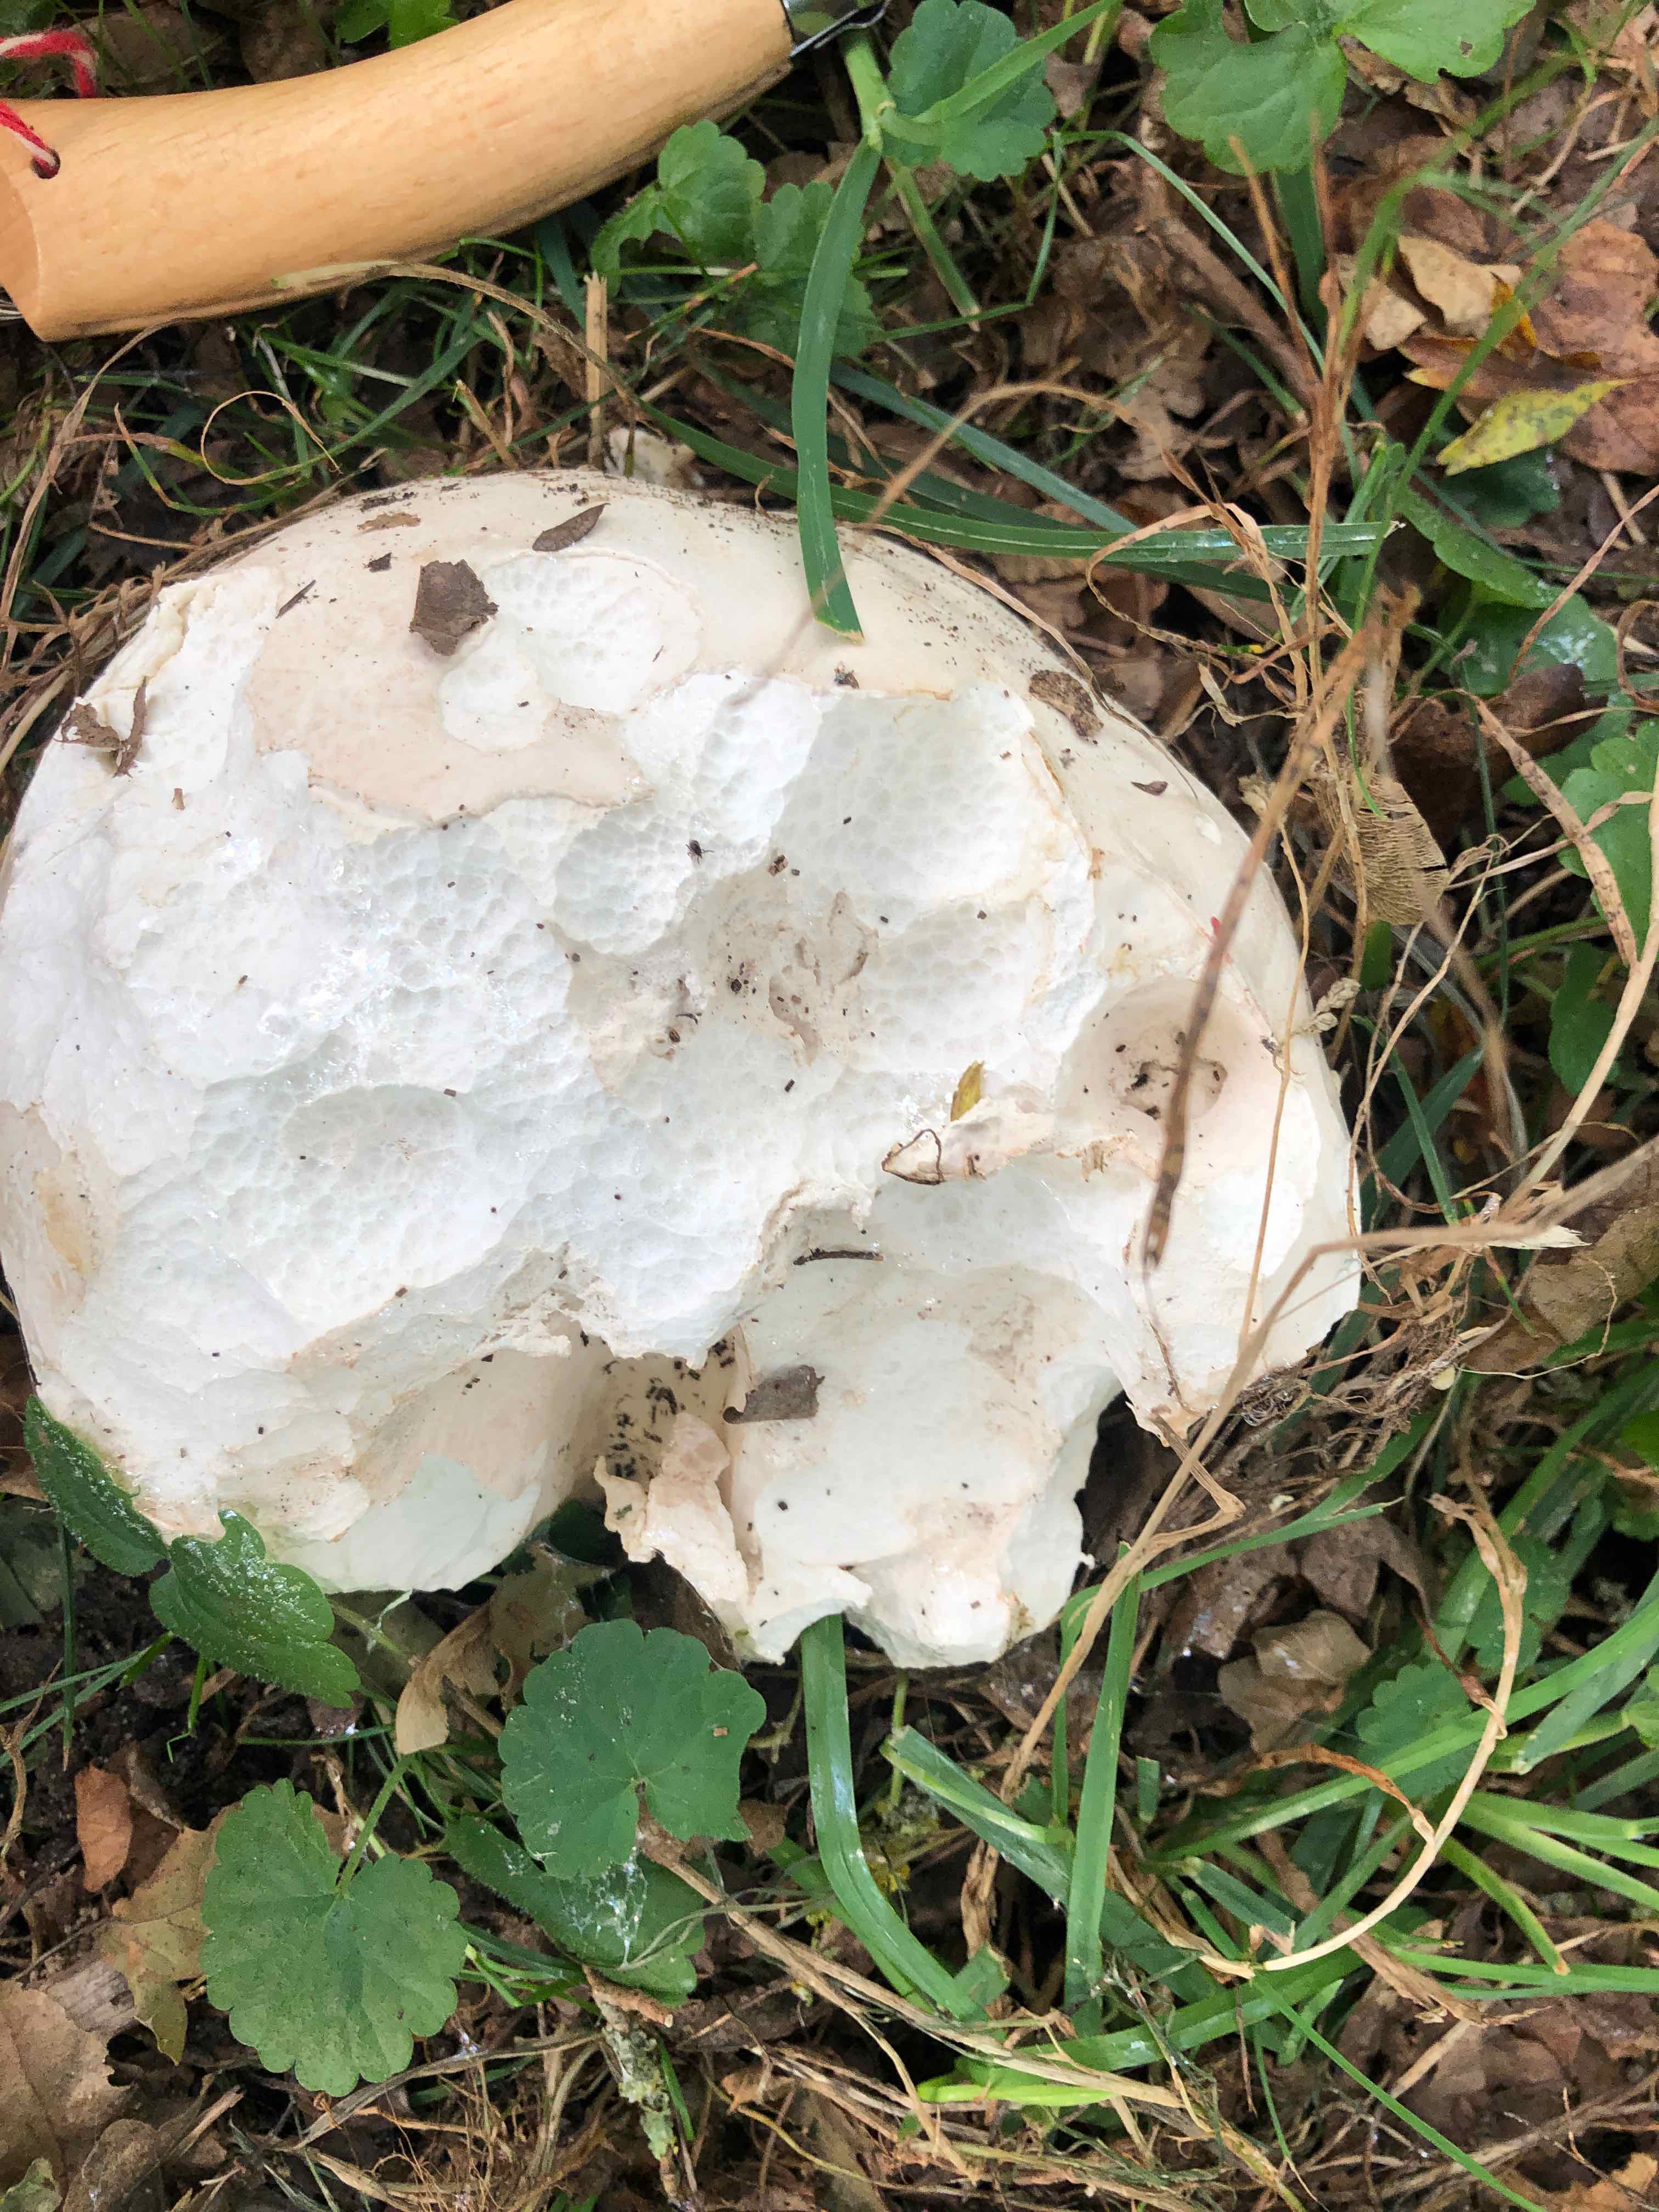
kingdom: Fungi
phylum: Basidiomycota
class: Agaricomycetes
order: Agaricales
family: Lycoperdaceae
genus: Calvatia
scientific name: Calvatia gigantea
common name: kæmpestøvbold
